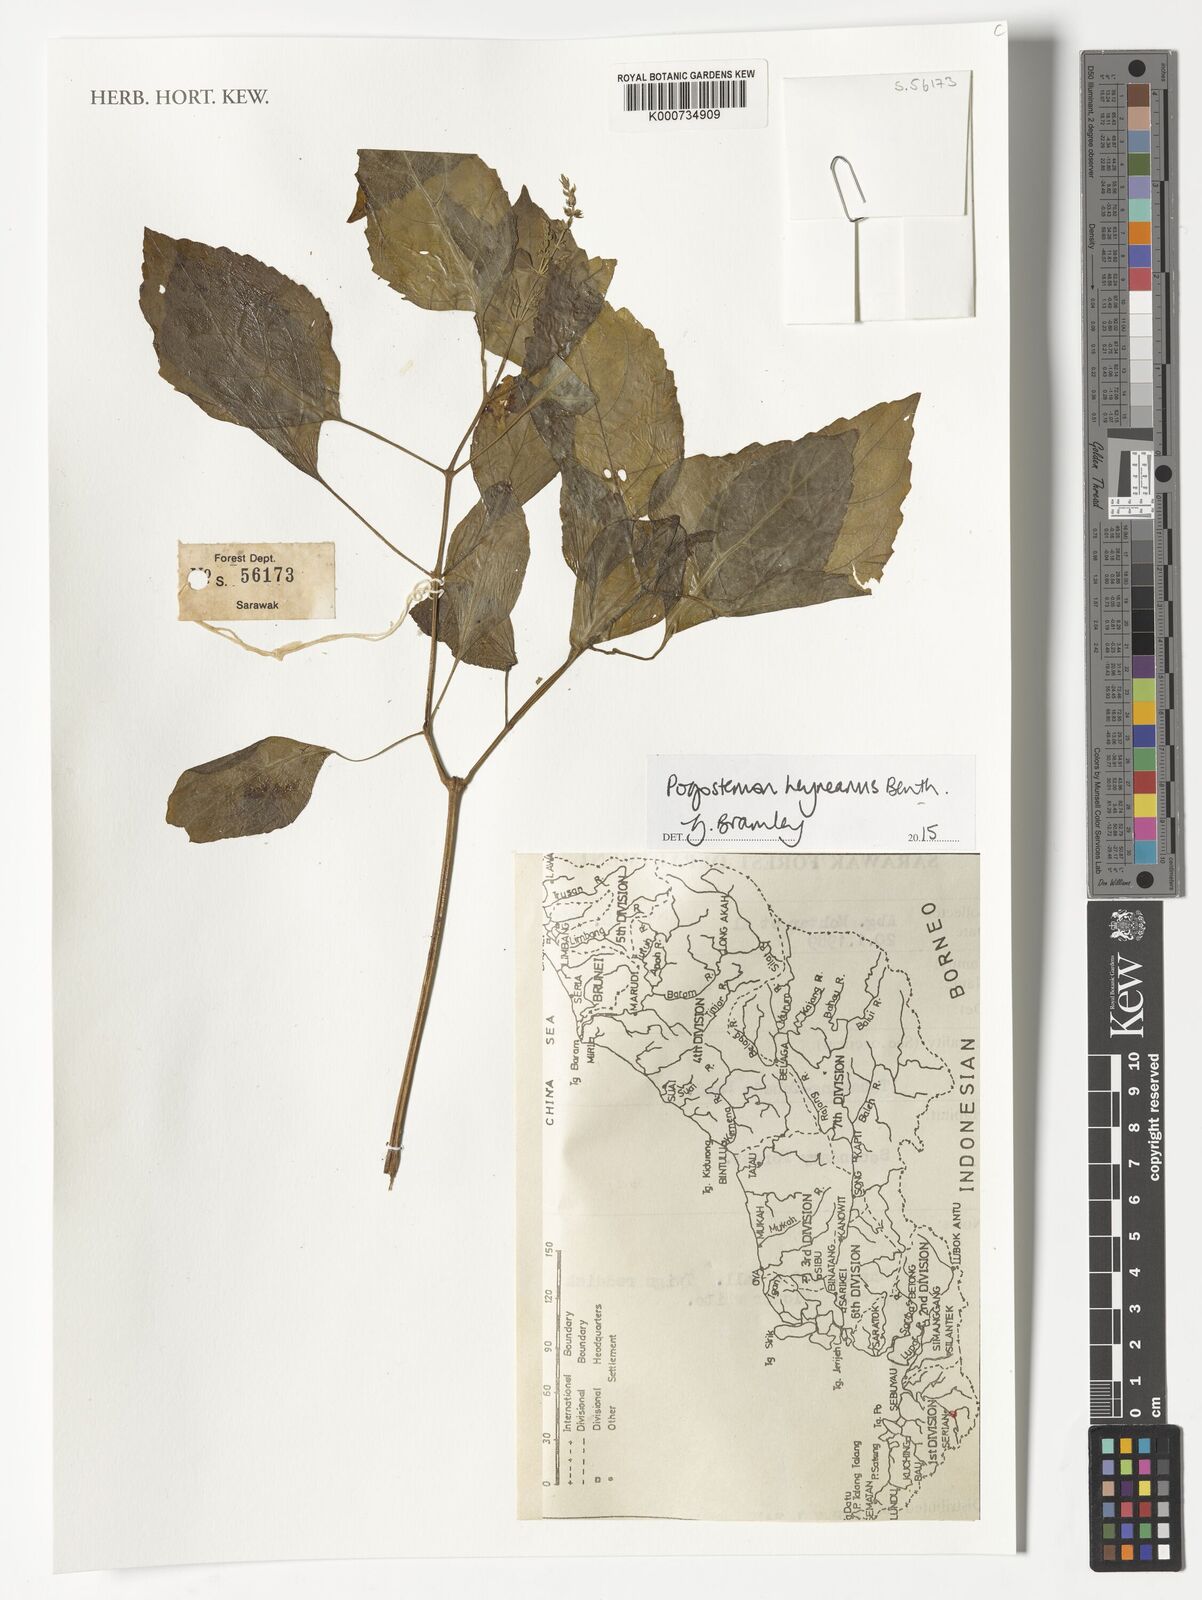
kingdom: Plantae
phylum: Tracheophyta
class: Magnoliopsida
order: Lamiales
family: Lamiaceae
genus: Pogostemon
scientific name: Pogostemon heyneanus
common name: Indian patchouli
